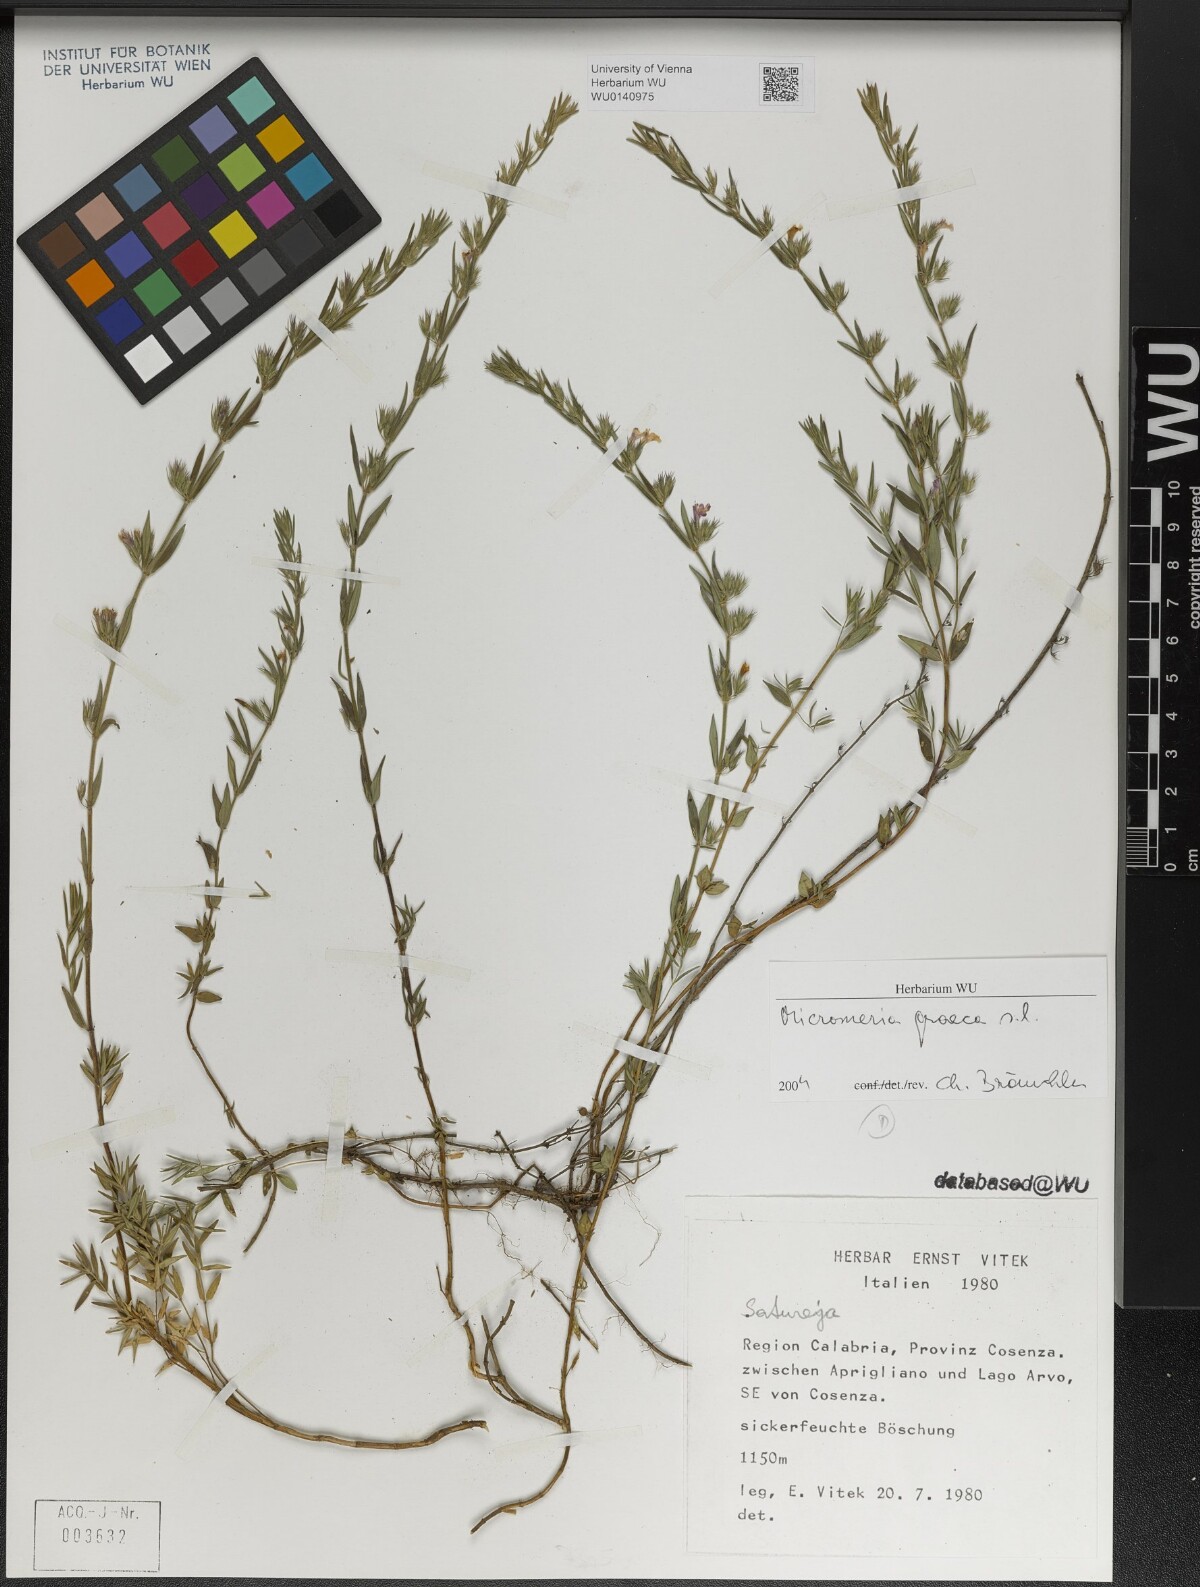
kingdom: Plantae
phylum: Tracheophyta
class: Magnoliopsida
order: Lamiales
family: Lamiaceae
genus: Micromeria
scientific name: Micromeria graeca
